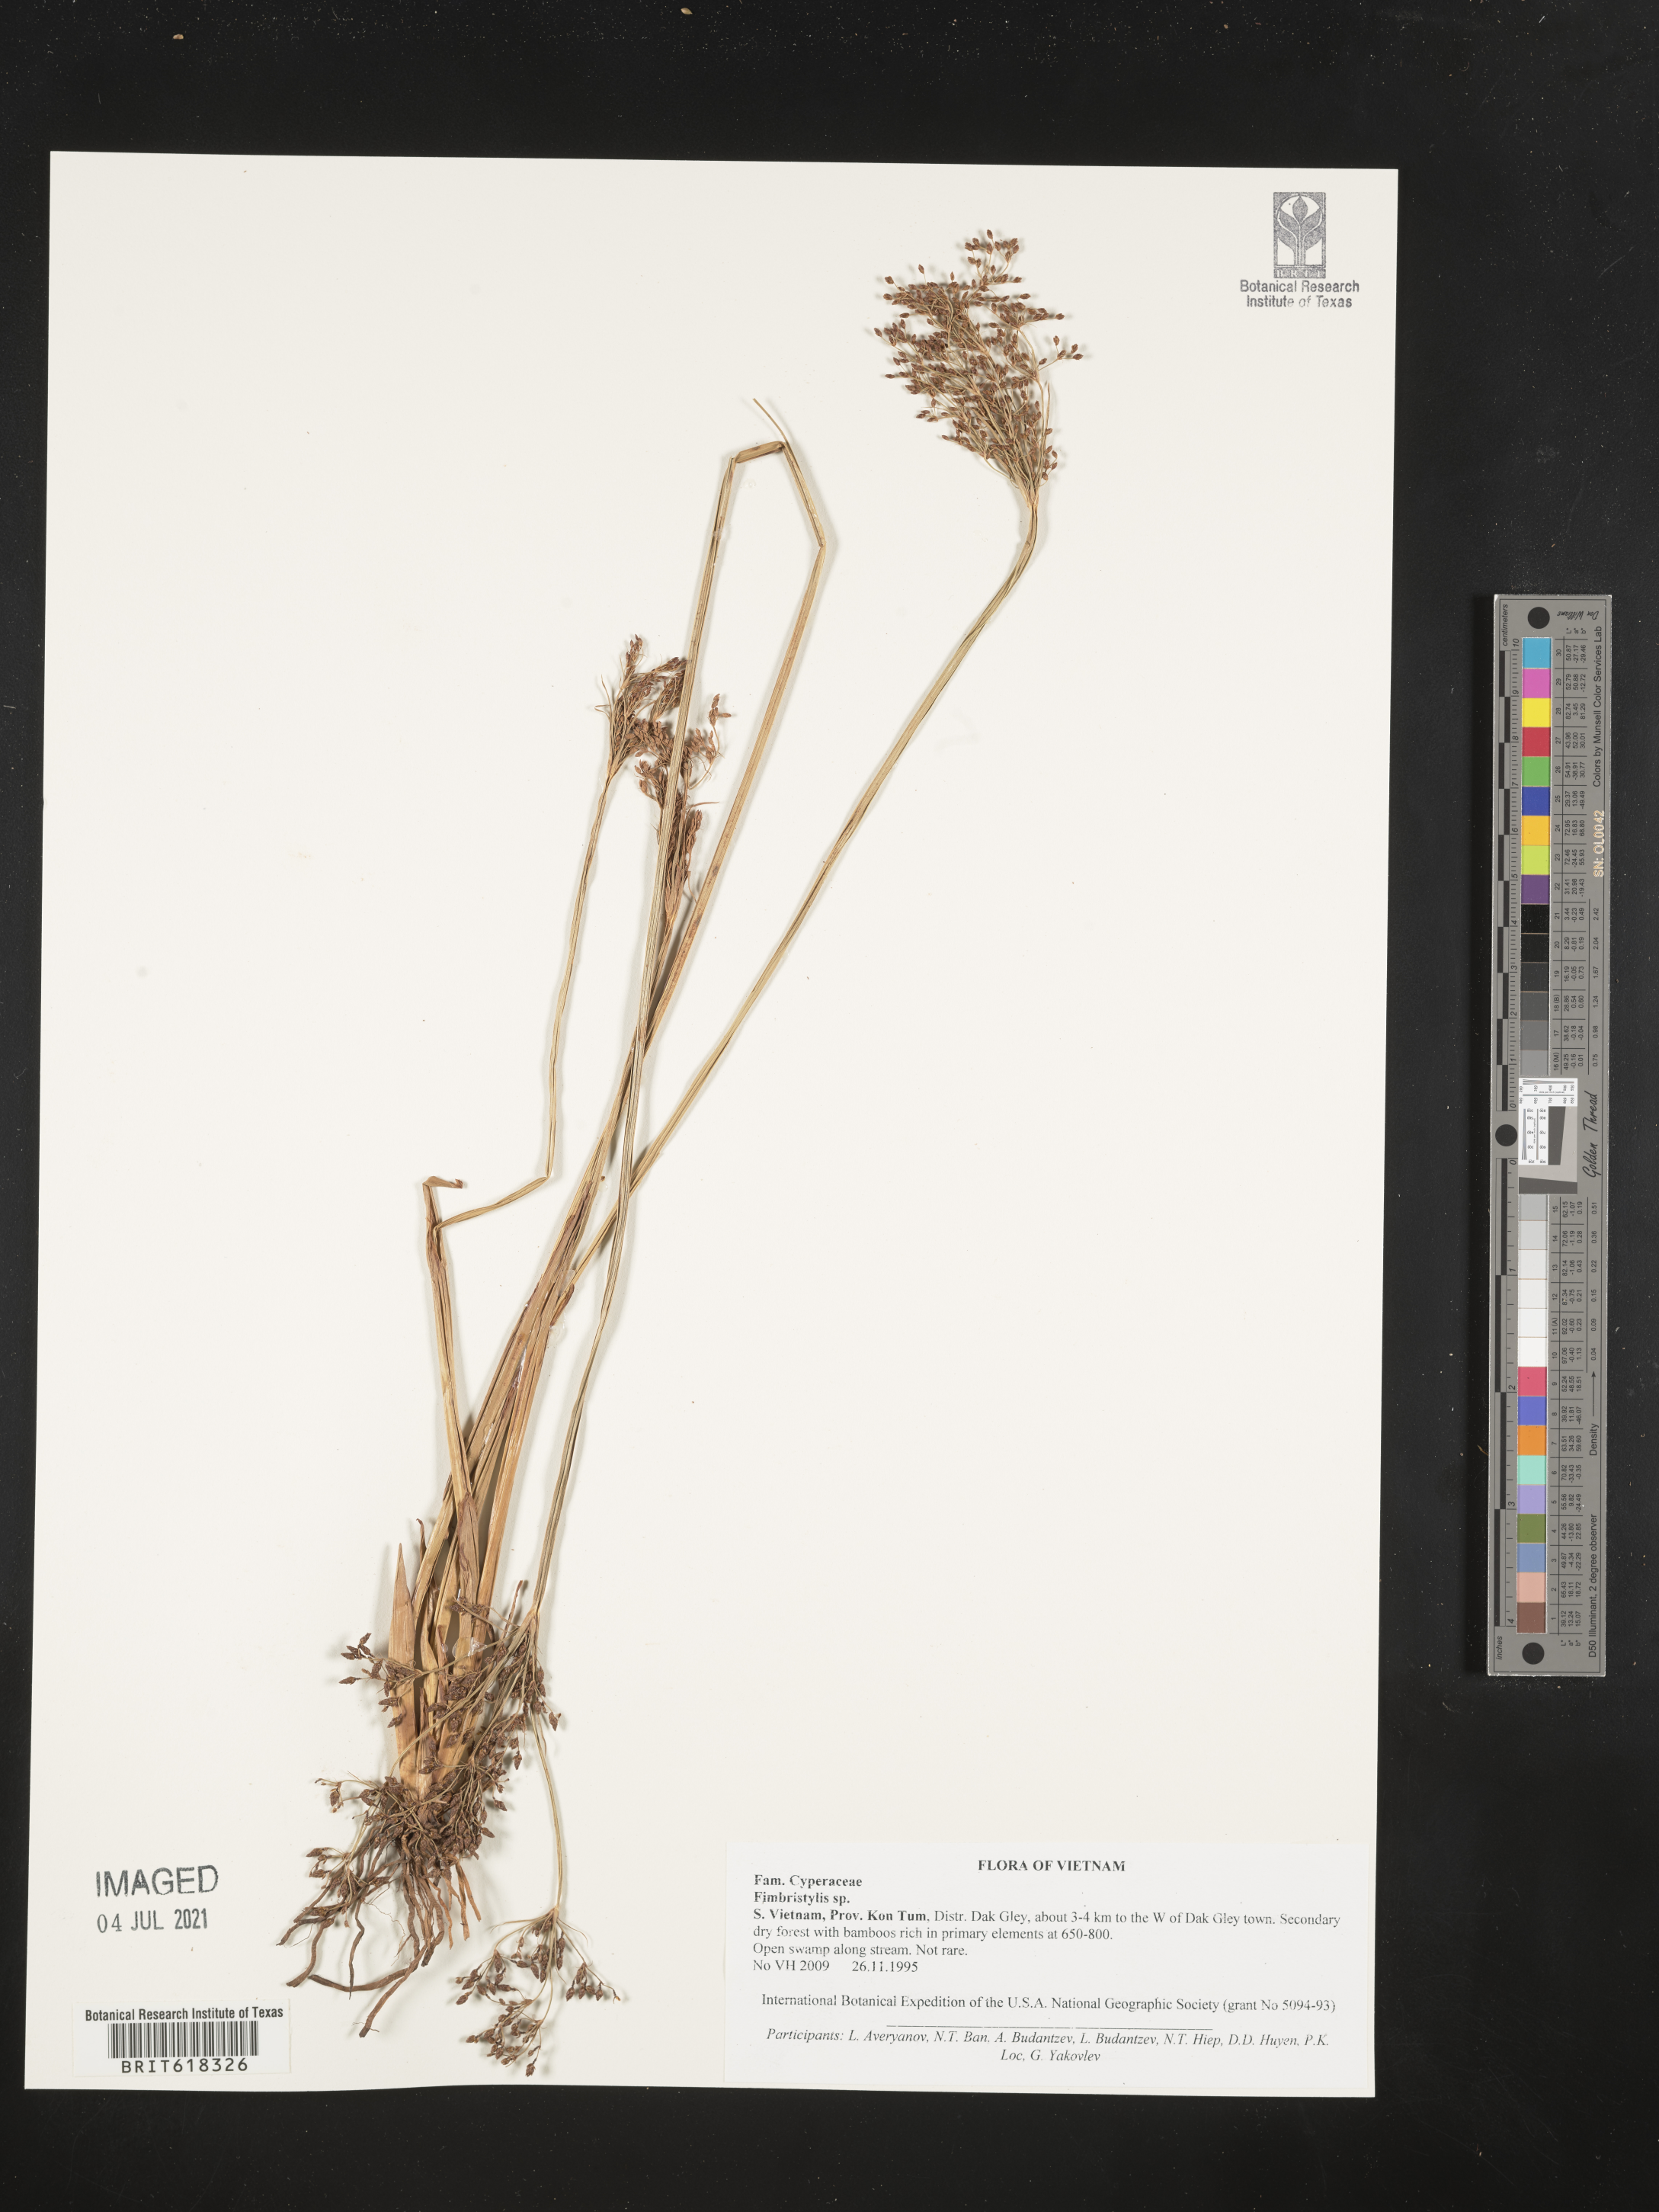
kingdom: Plantae
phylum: Tracheophyta
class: Liliopsida
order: Poales
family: Cyperaceae
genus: Fimbristylis
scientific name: Fimbristylis
